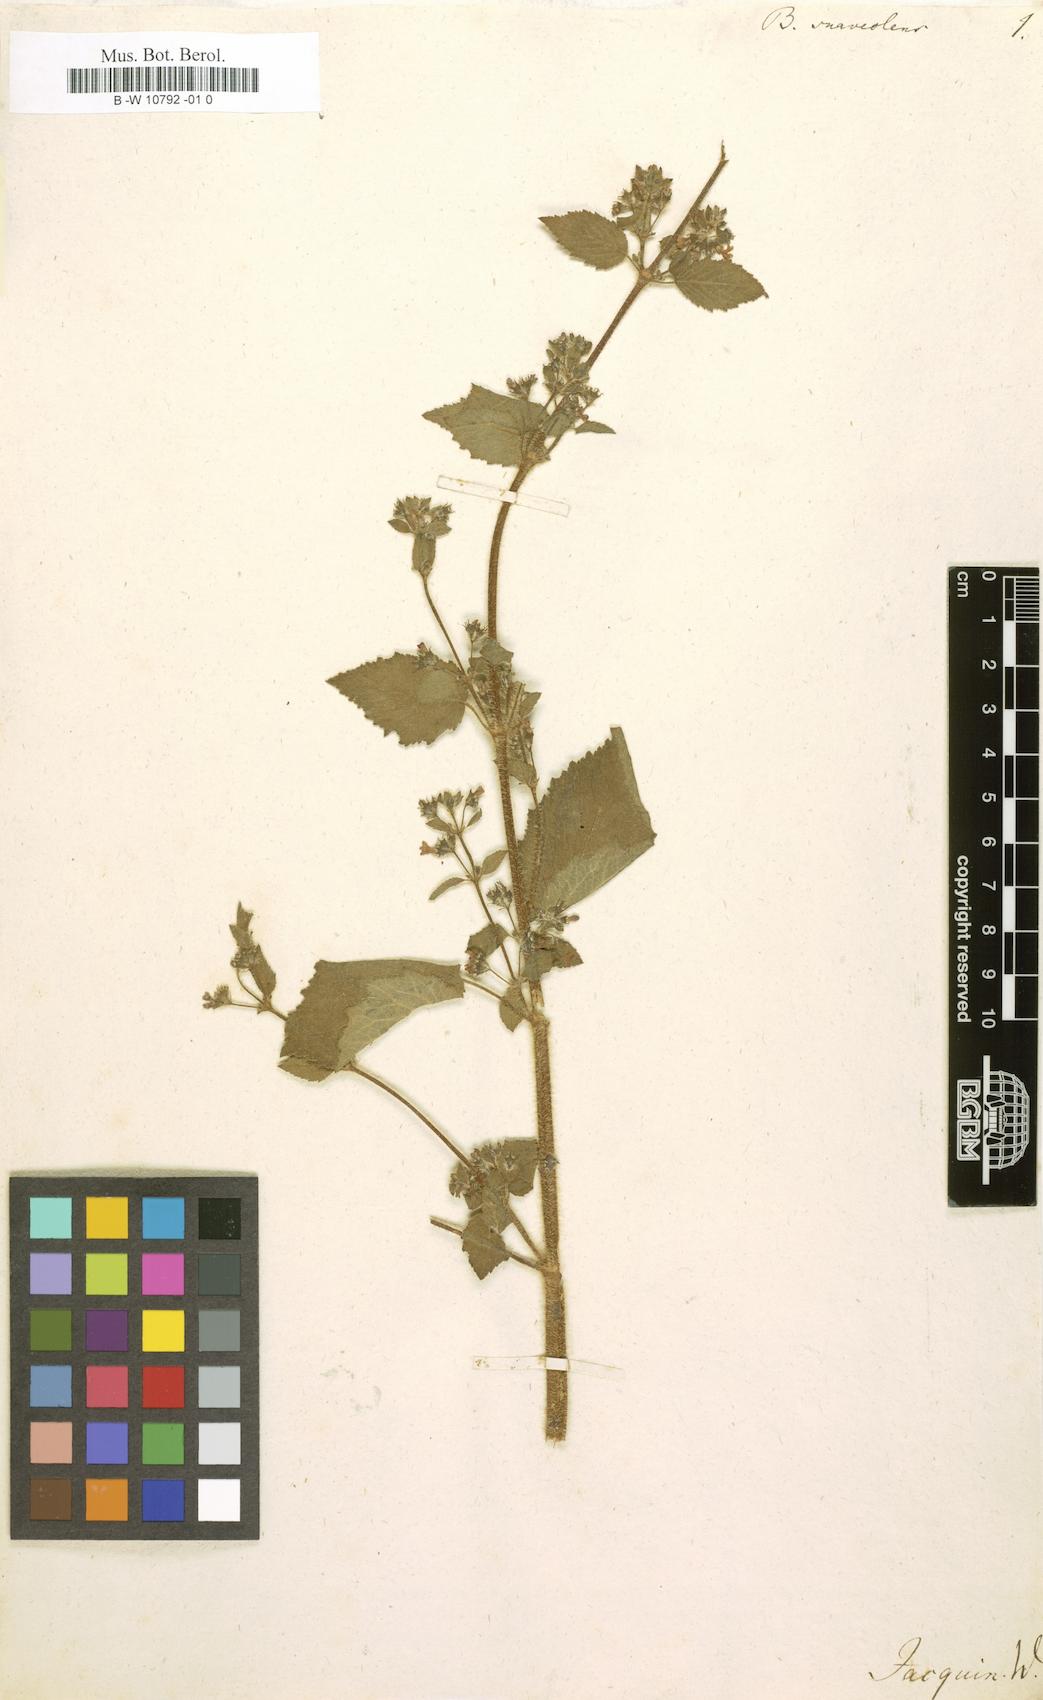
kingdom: Plantae
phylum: Tracheophyta
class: Magnoliopsida
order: Lamiales
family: Lamiaceae
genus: Mesosphaerum
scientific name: Mesosphaerum suaveolens
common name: Pignut
